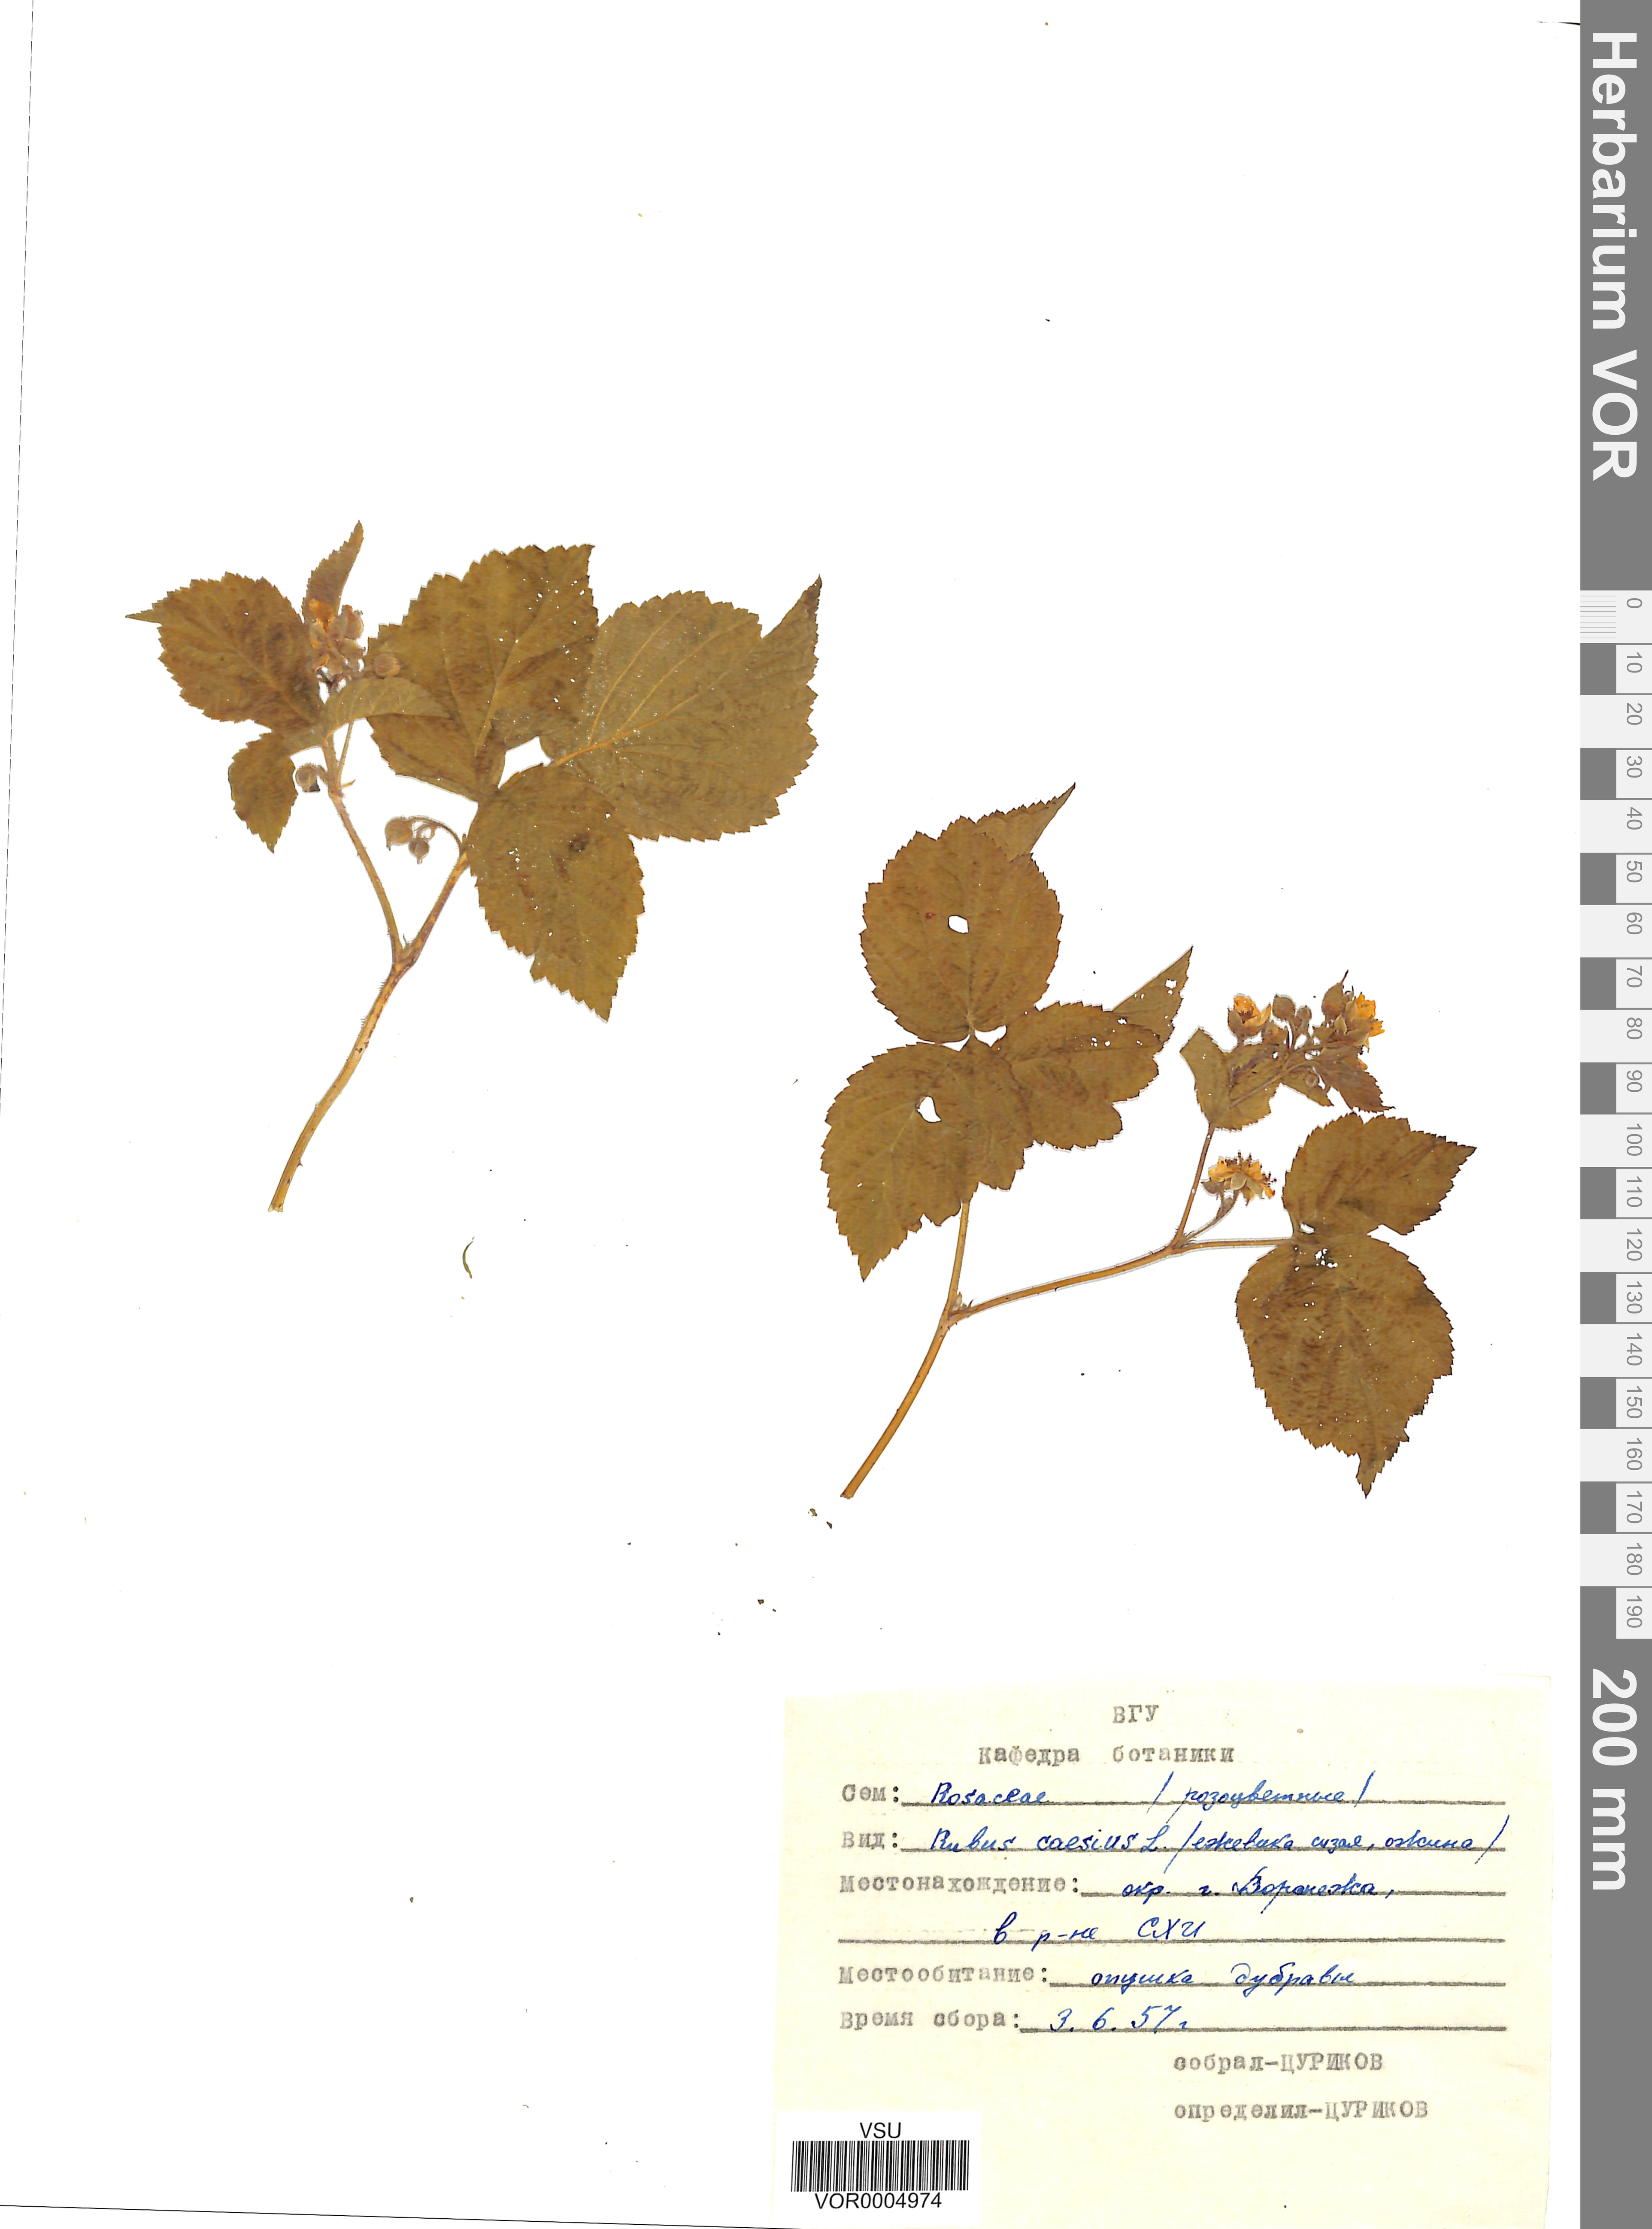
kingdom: Plantae
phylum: Tracheophyta
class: Magnoliopsida
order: Rosales
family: Rosaceae
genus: Rubus
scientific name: Rubus caesius
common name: Dewberry
